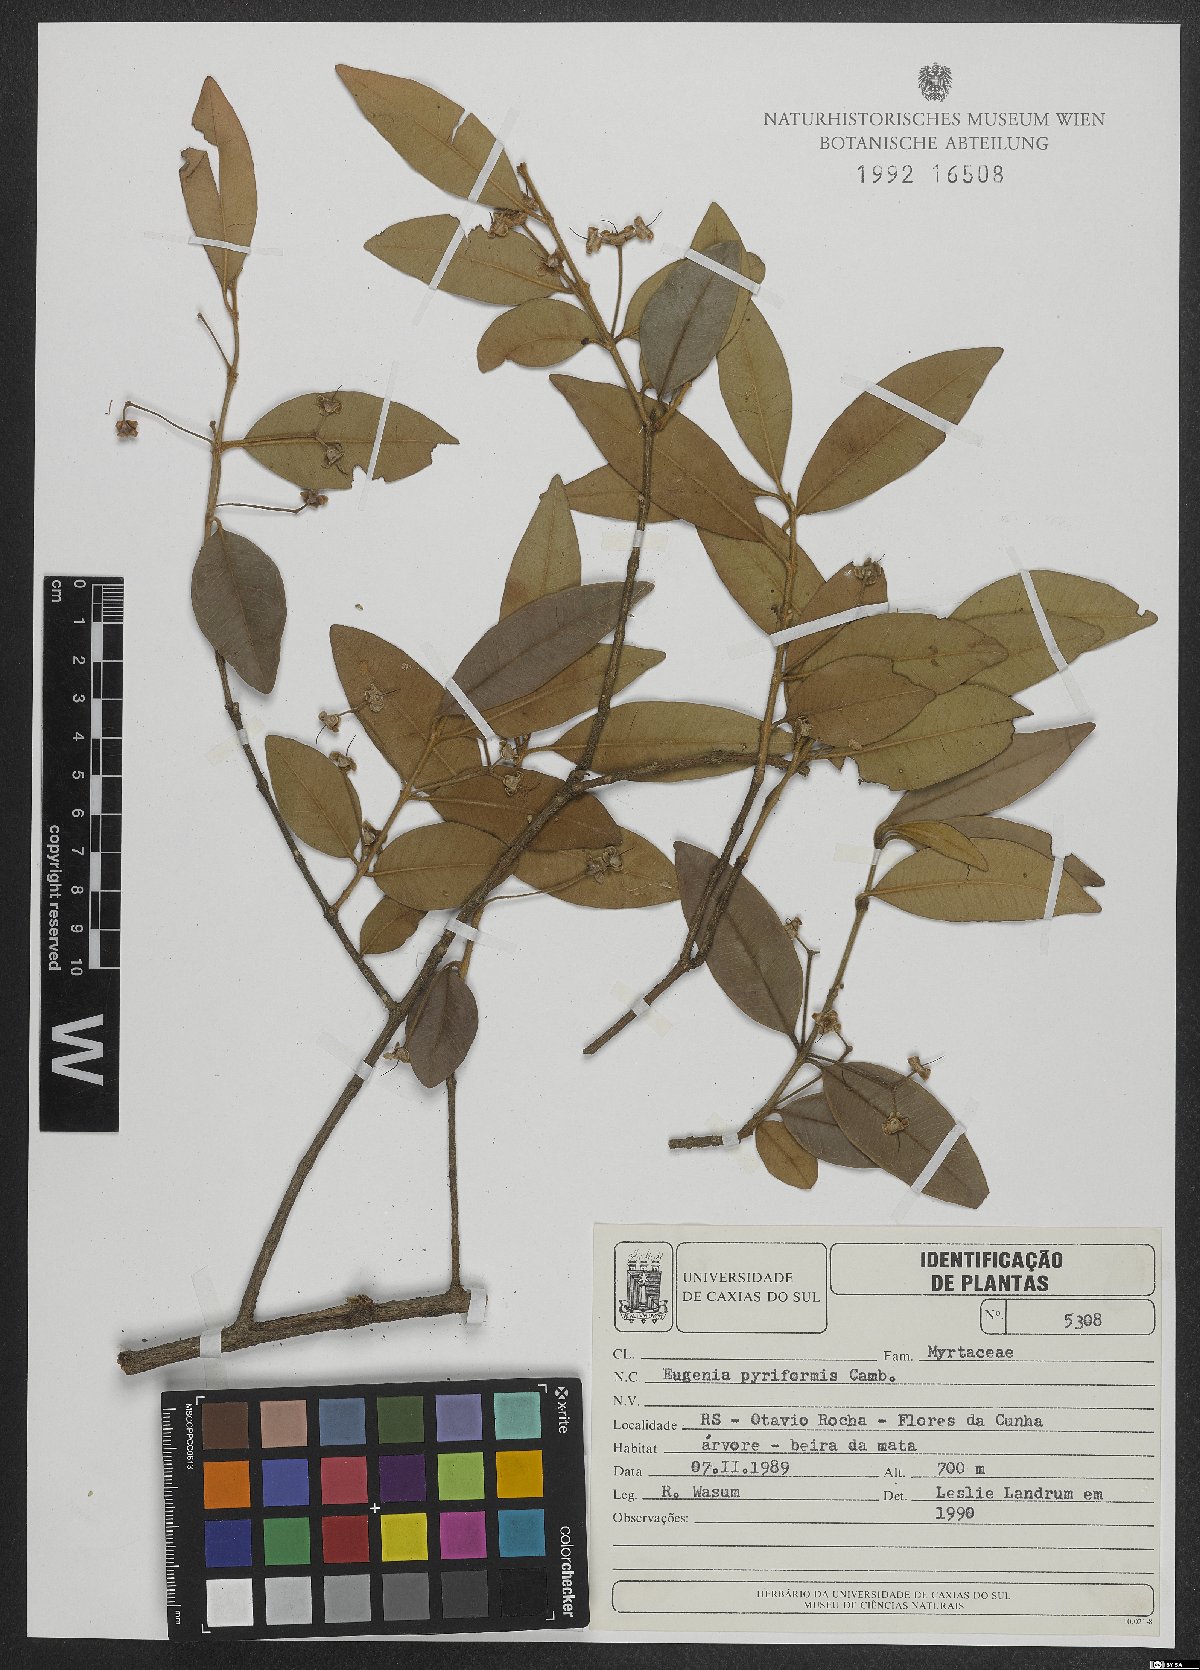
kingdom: Plantae
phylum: Tracheophyta
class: Magnoliopsida
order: Myrtales
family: Myrtaceae
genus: Eugenia
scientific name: Eugenia pyriformis
